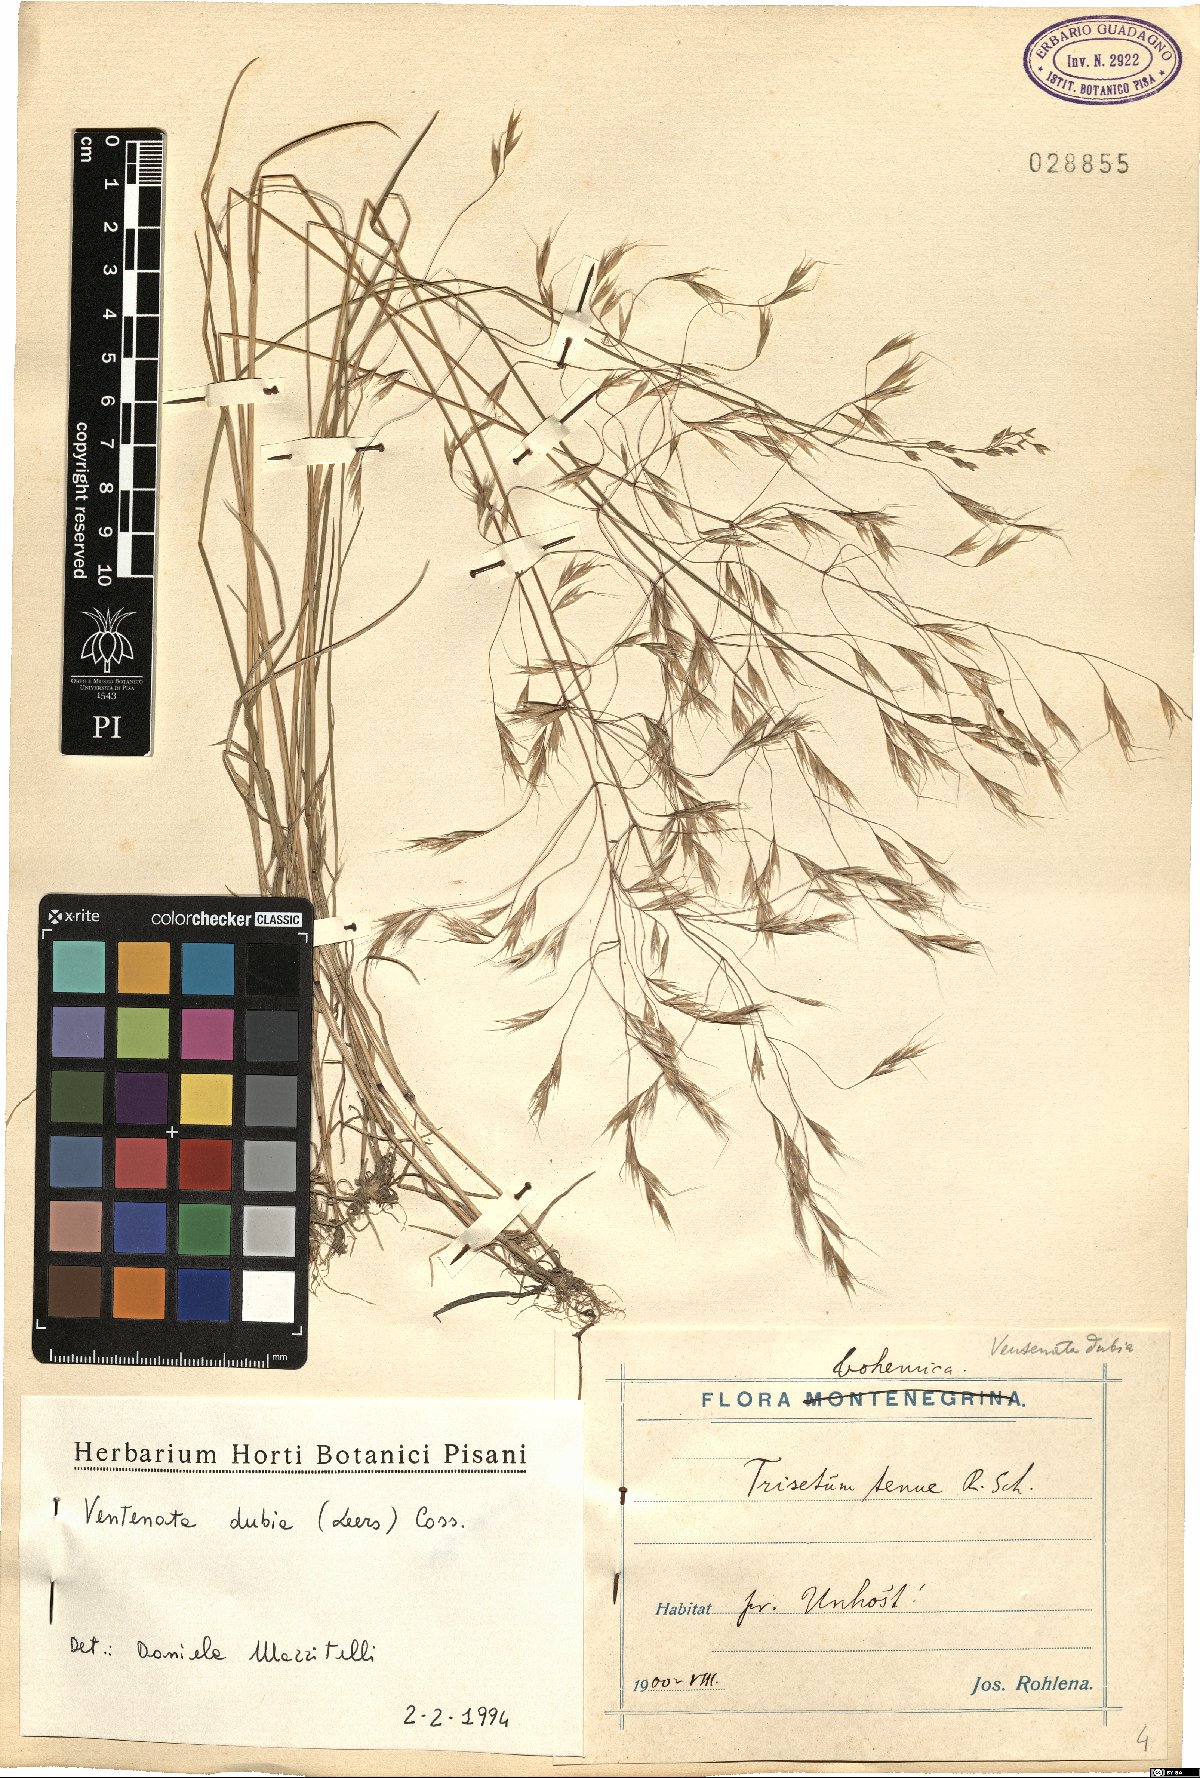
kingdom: Plantae
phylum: Tracheophyta
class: Liliopsida
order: Poales
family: Poaceae
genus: Ventenata
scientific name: Ventenata dubia
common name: North africa grass
